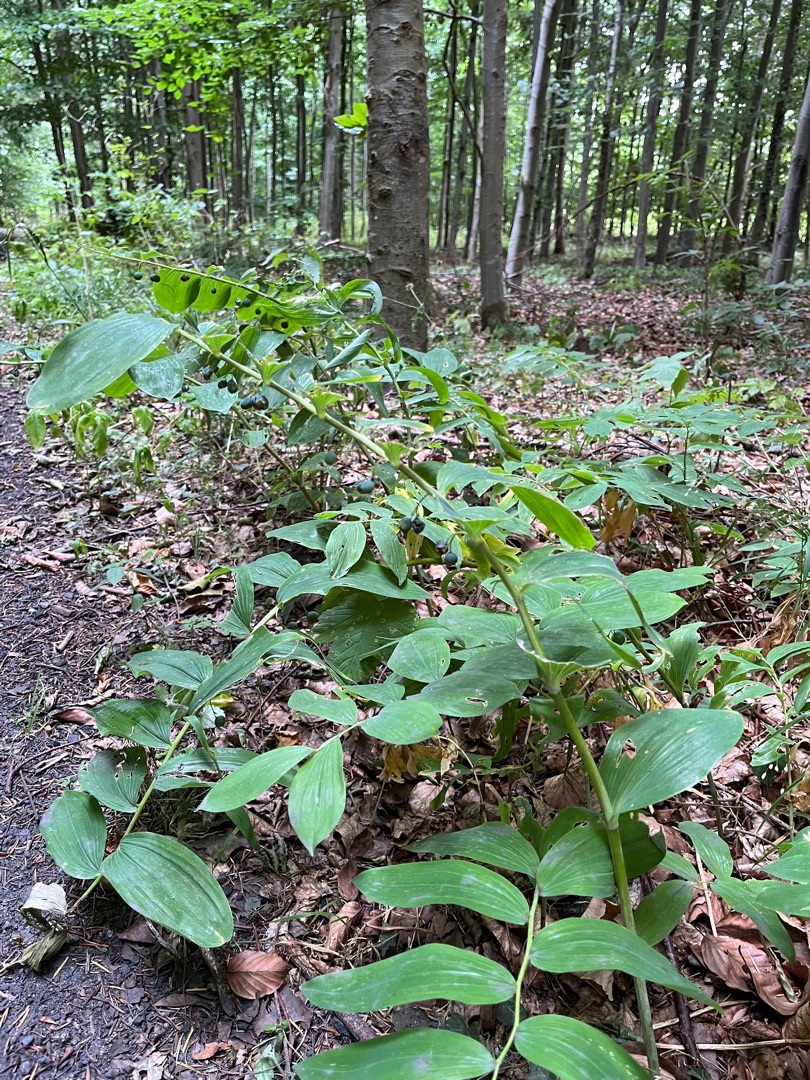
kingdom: Plantae
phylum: Tracheophyta
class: Liliopsida
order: Asparagales
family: Asparagaceae
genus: Polygonatum
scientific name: Polygonatum
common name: Hybrid-konval
